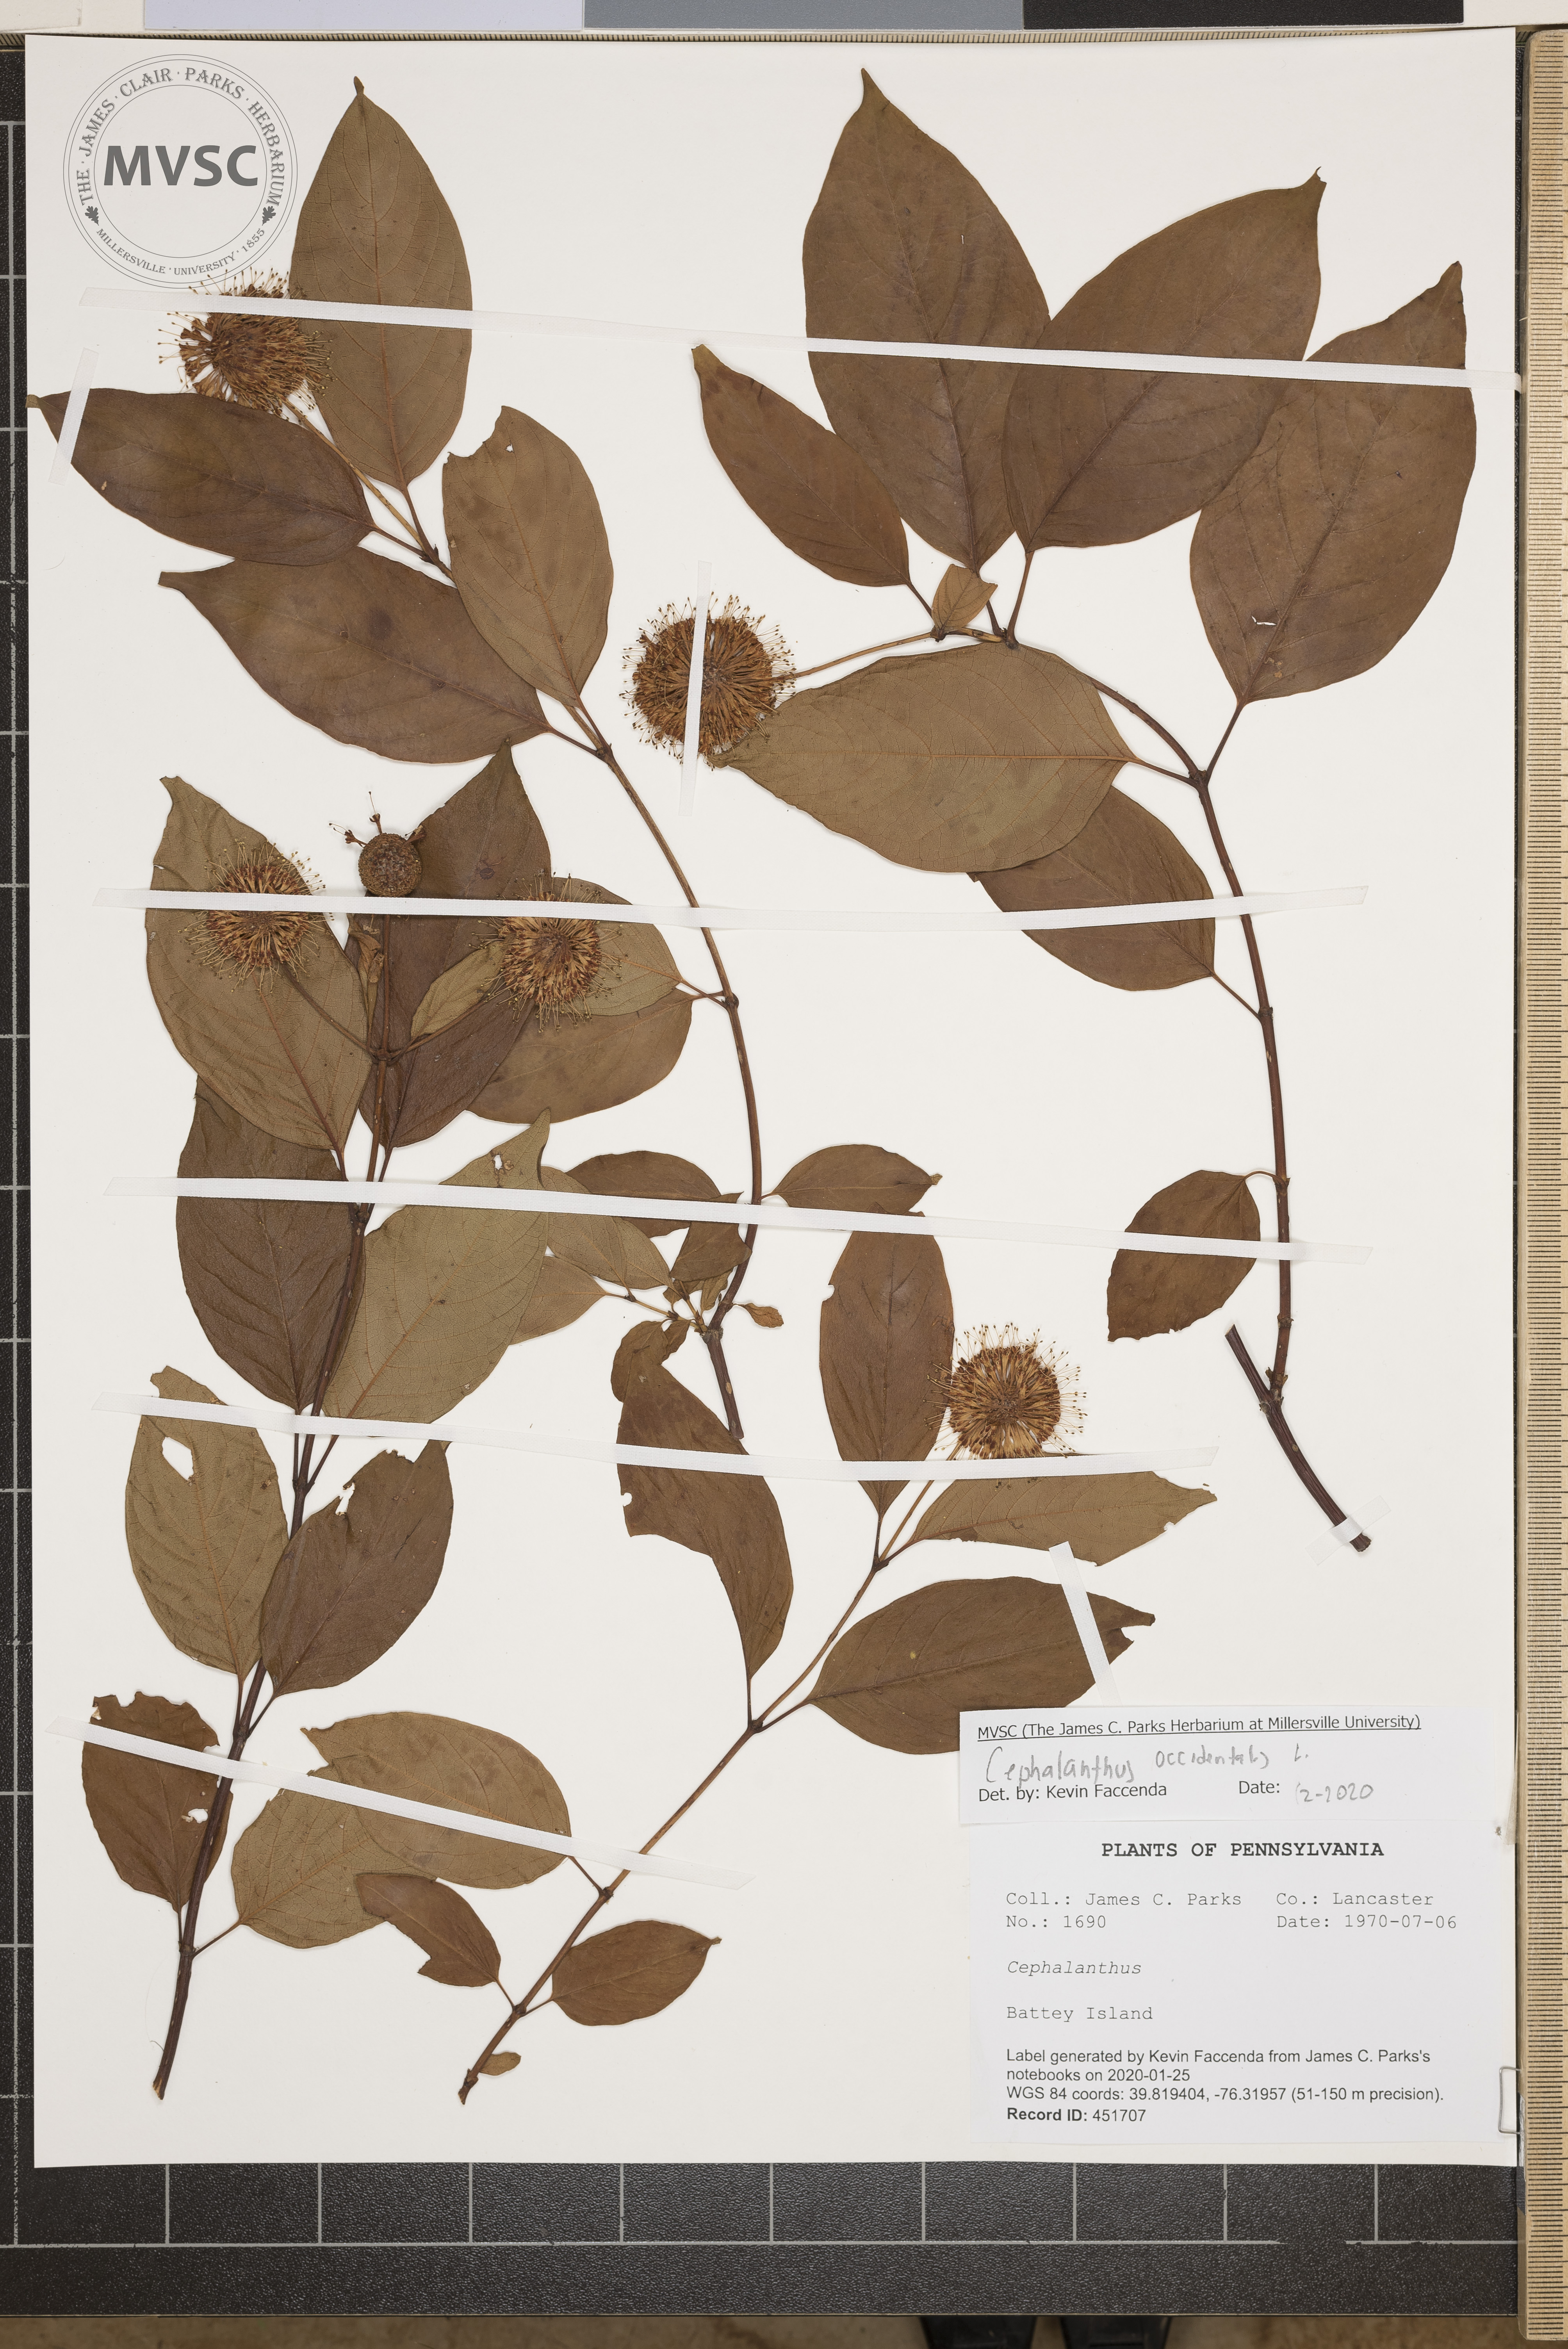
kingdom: Plantae
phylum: Tracheophyta
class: Magnoliopsida
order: Gentianales
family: Rubiaceae
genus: Cephalanthus
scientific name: Cephalanthus occidentalis
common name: Button-willow
